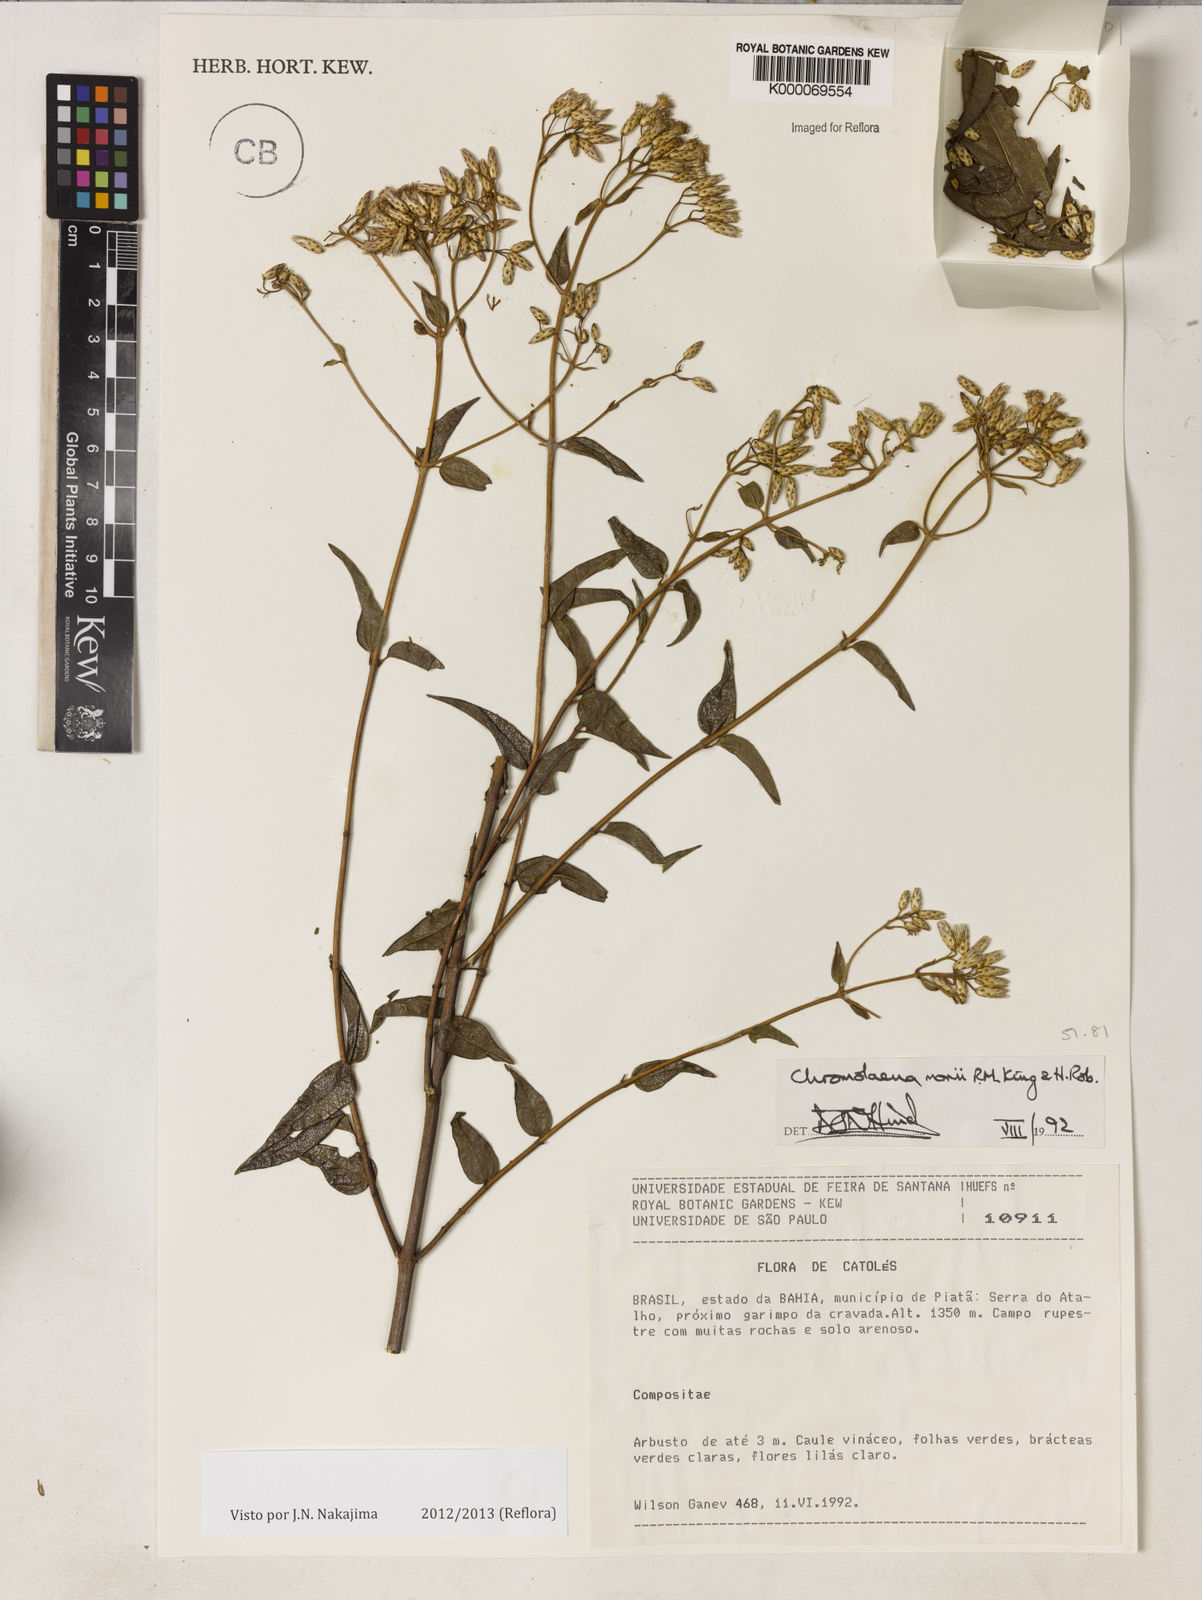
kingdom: Plantae
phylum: Tracheophyta
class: Magnoliopsida
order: Asterales
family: Asteraceae
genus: Chromolaena
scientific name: Chromolaena morii
